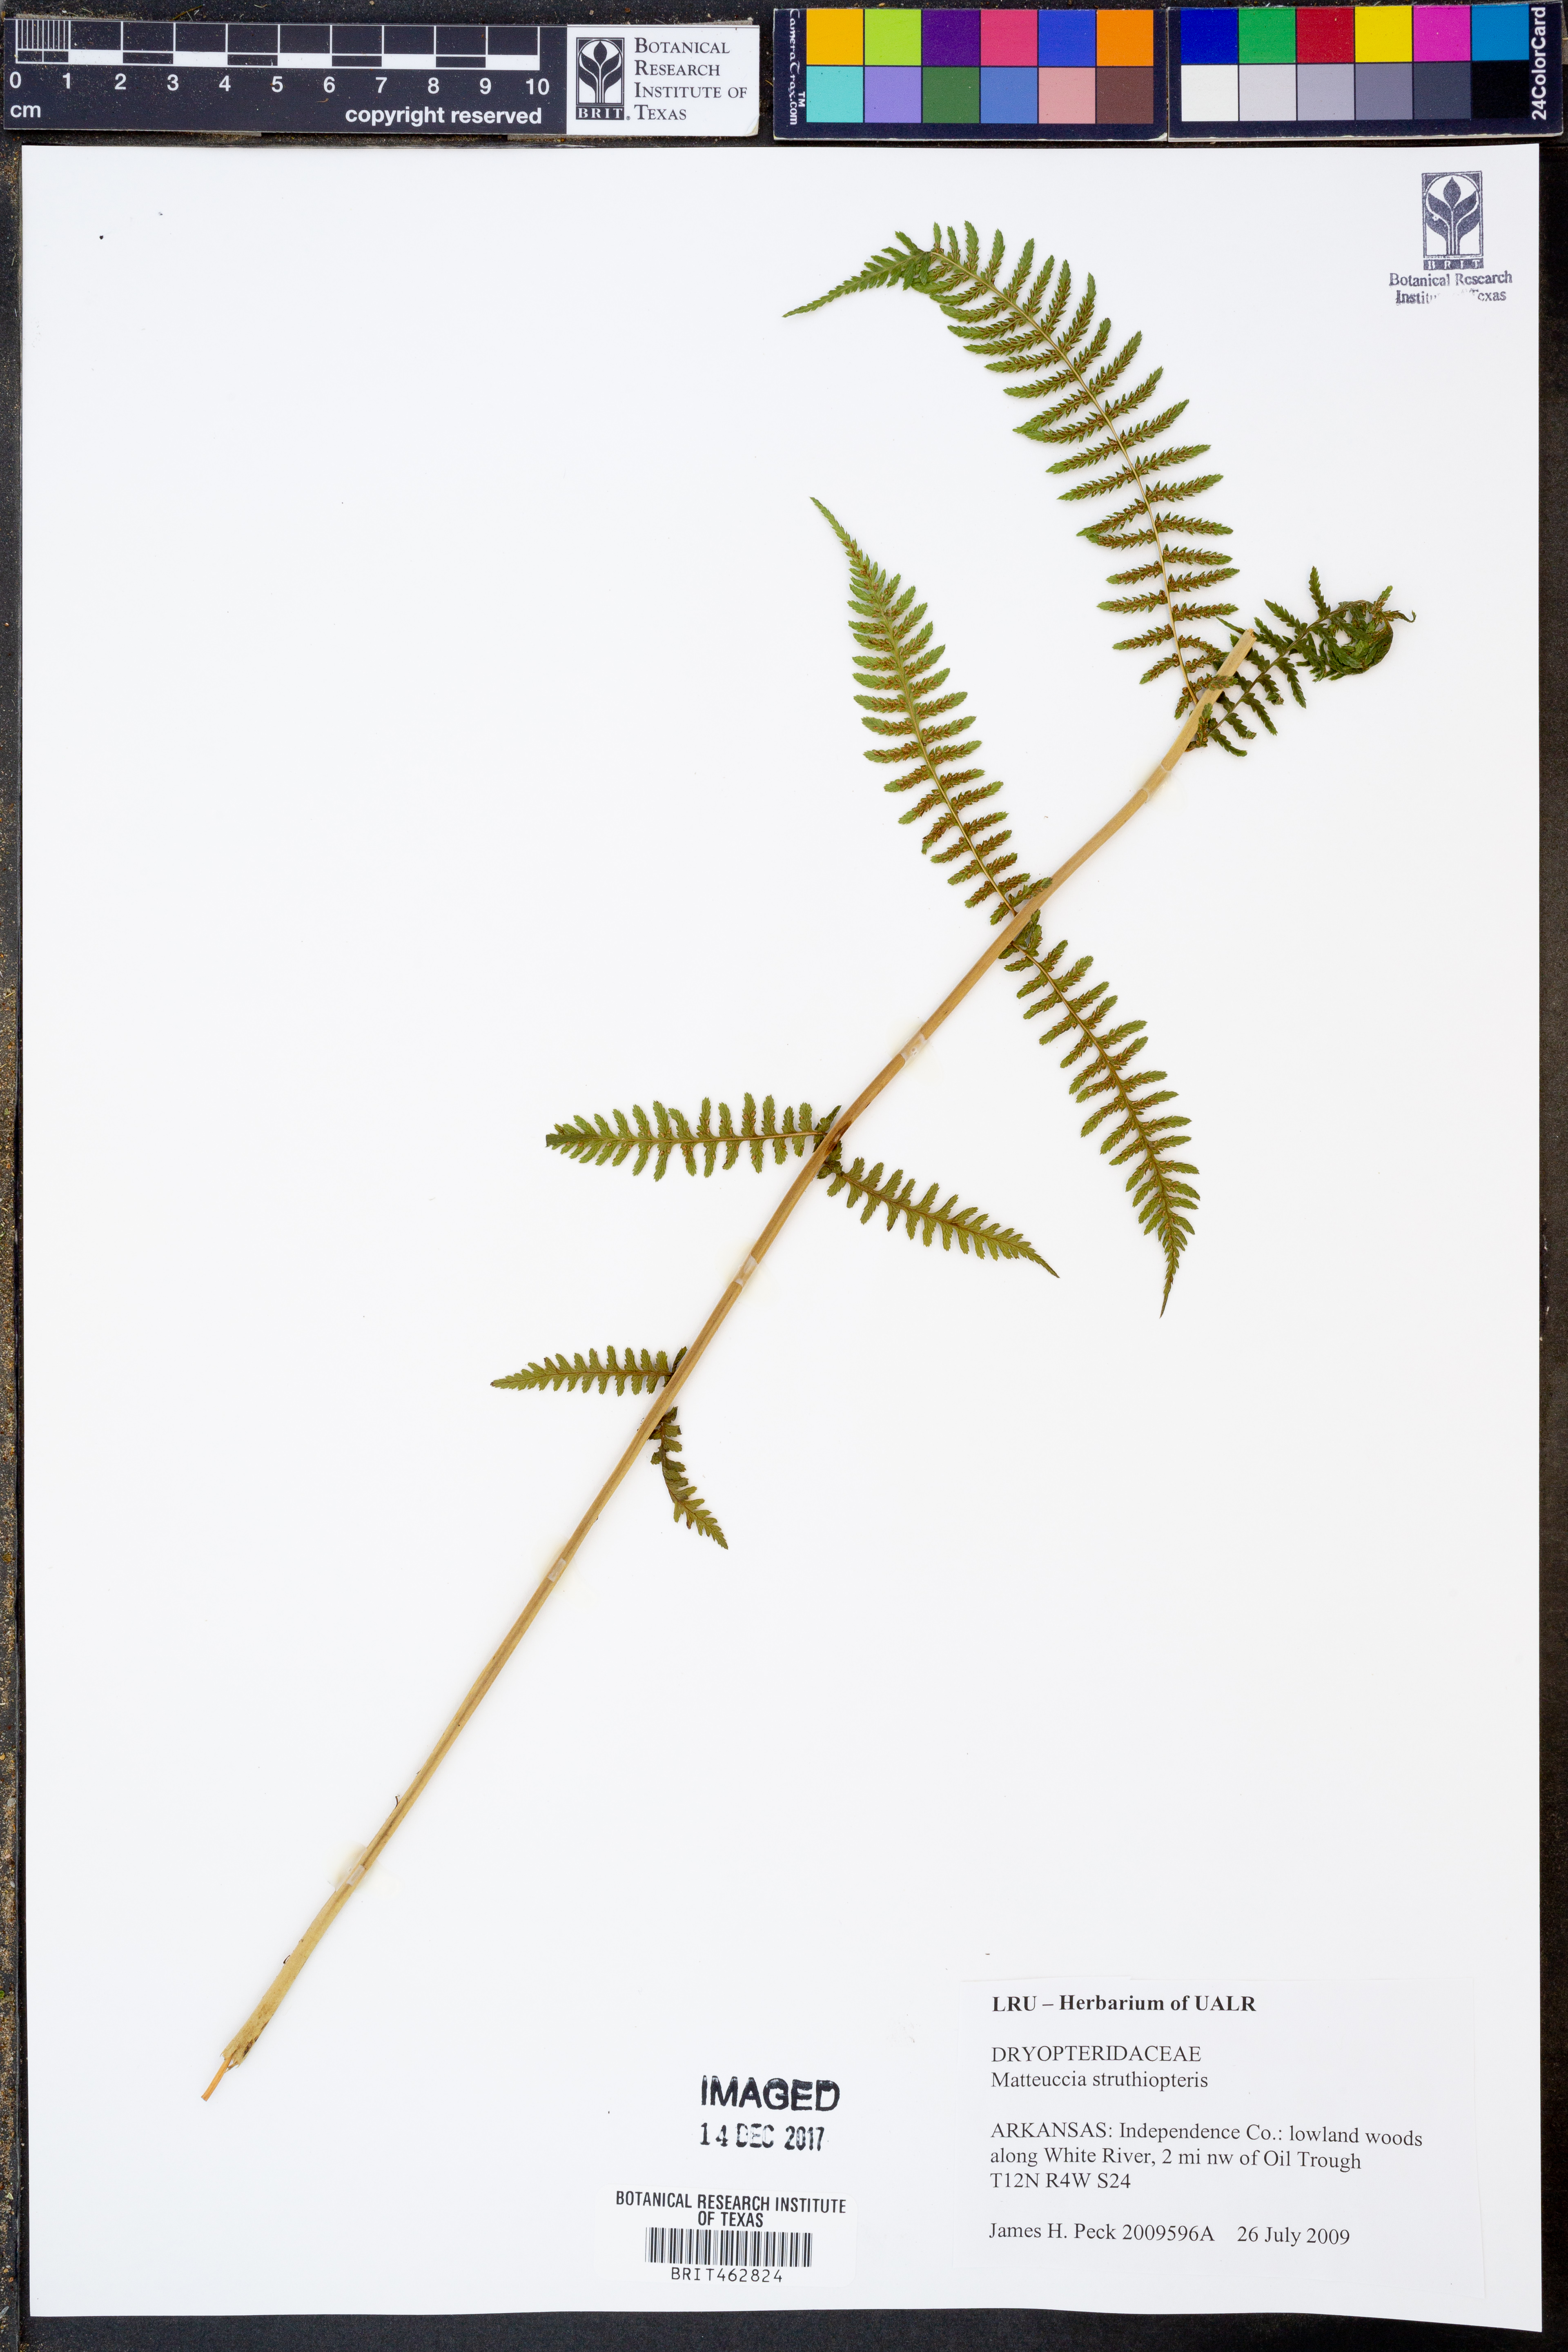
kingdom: Plantae
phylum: Tracheophyta
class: Polypodiopsida
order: Polypodiales
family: Onocleaceae
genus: Matteuccia
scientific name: Matteuccia struthiopteris
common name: Ostrich fern
